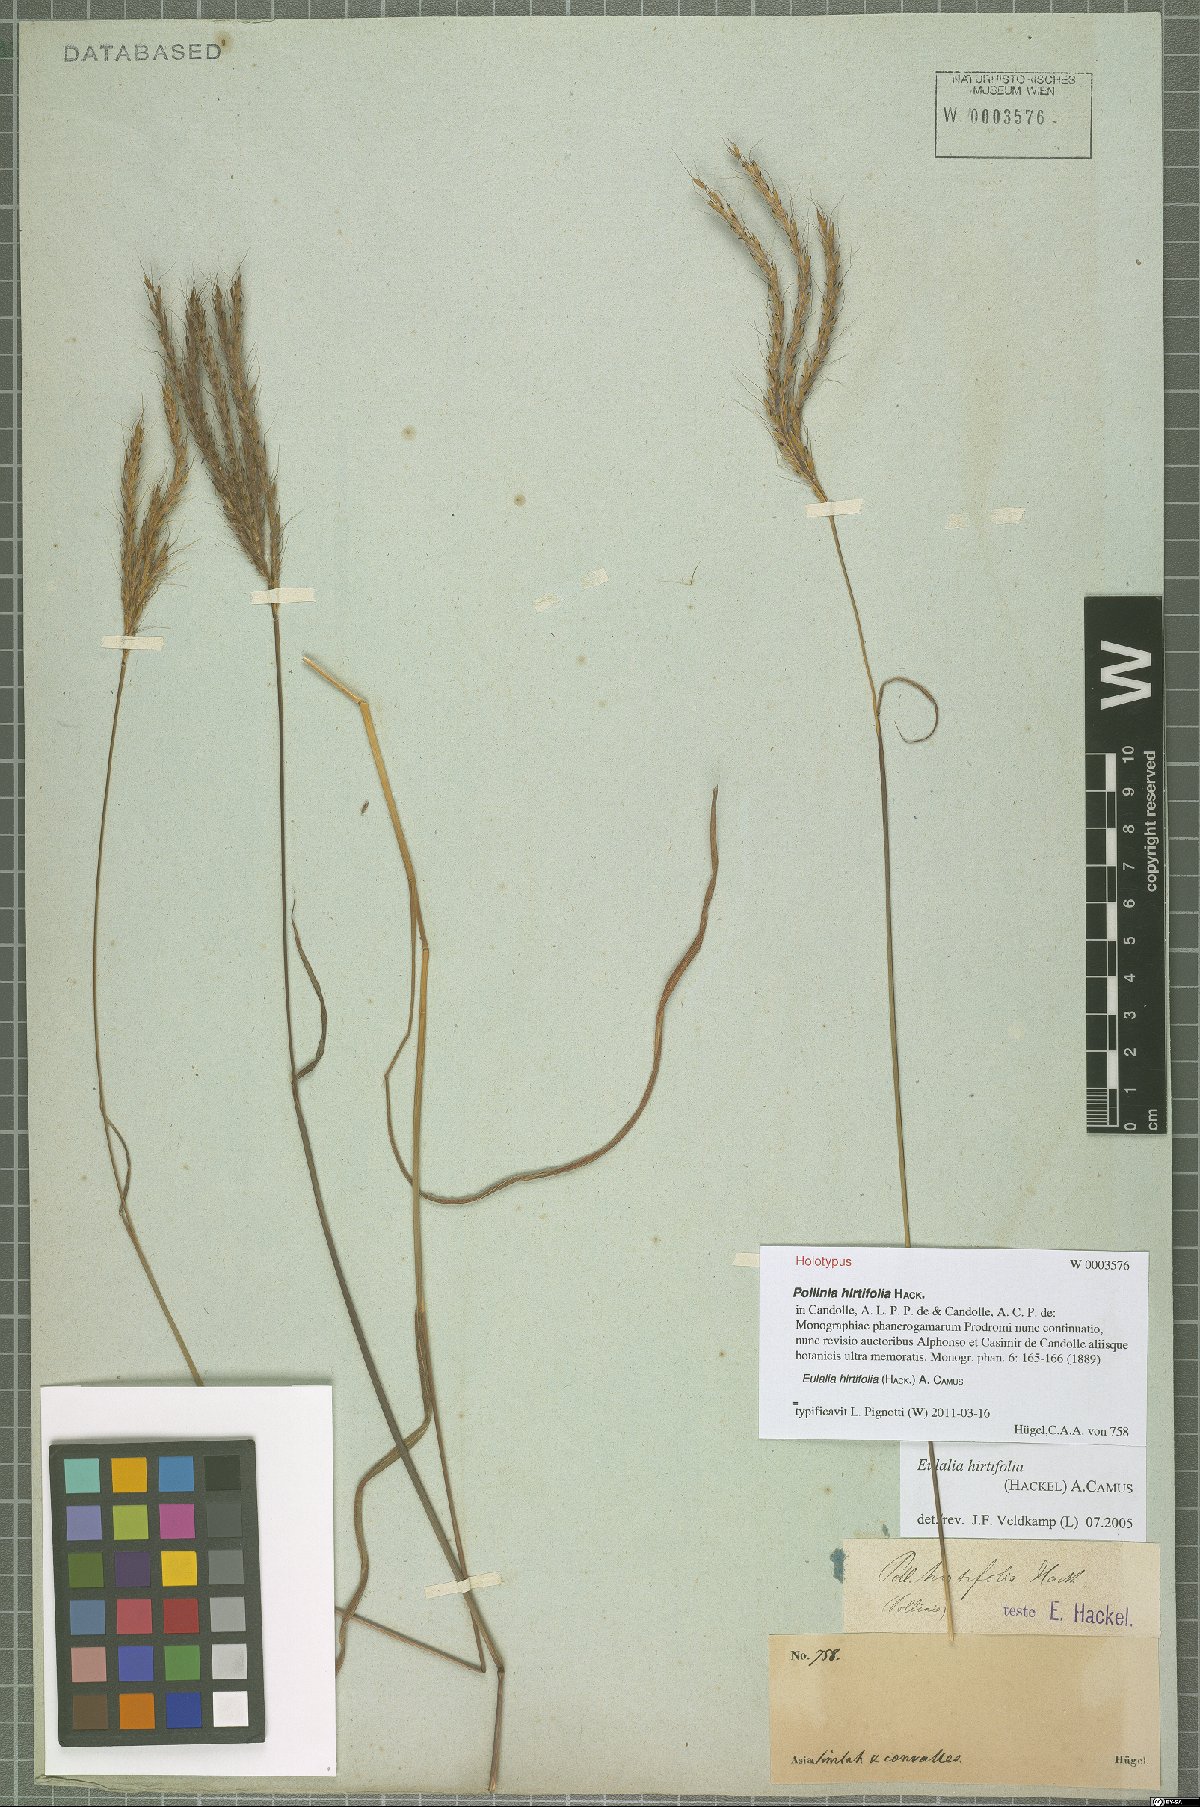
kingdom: Plantae
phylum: Tracheophyta
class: Liliopsida
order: Poales
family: Poaceae
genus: Eulalia
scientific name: Eulalia hirtifolia
